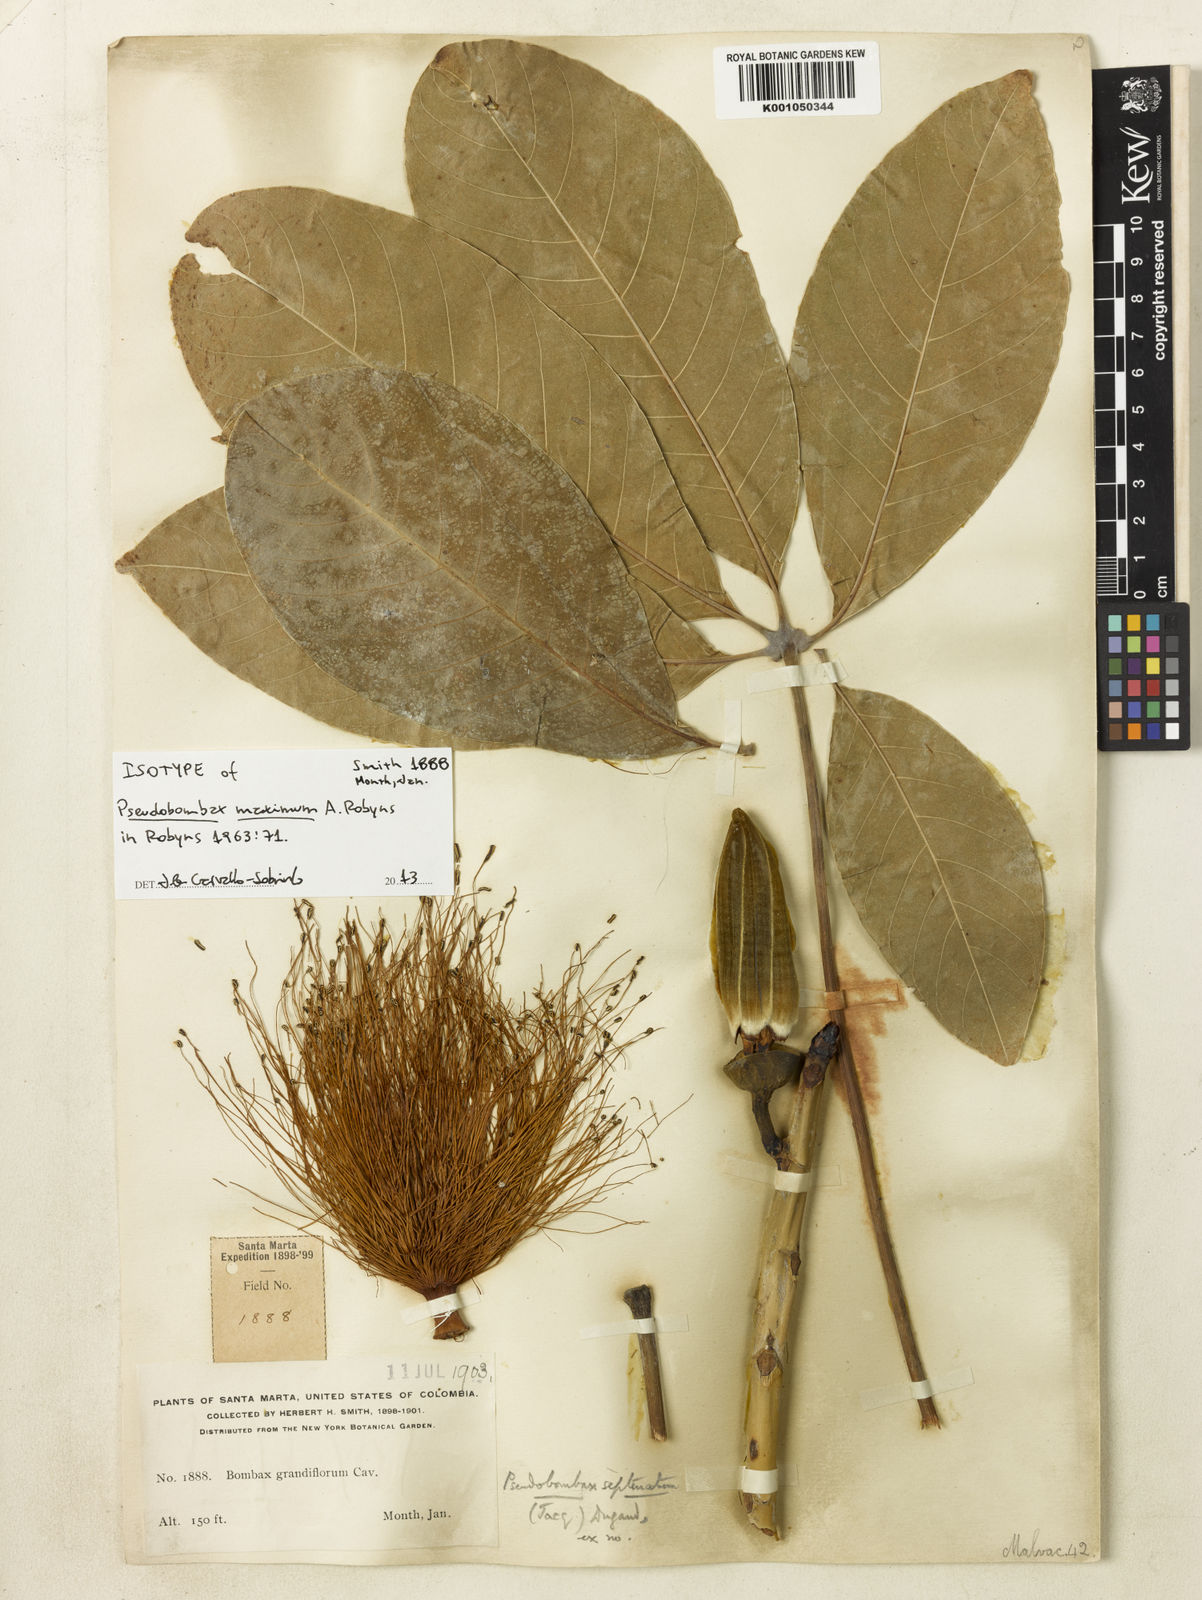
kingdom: Plantae
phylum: Tracheophyta
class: Magnoliopsida
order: Malvales
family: Malvaceae
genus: Pseudobombax
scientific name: Pseudobombax maximum
